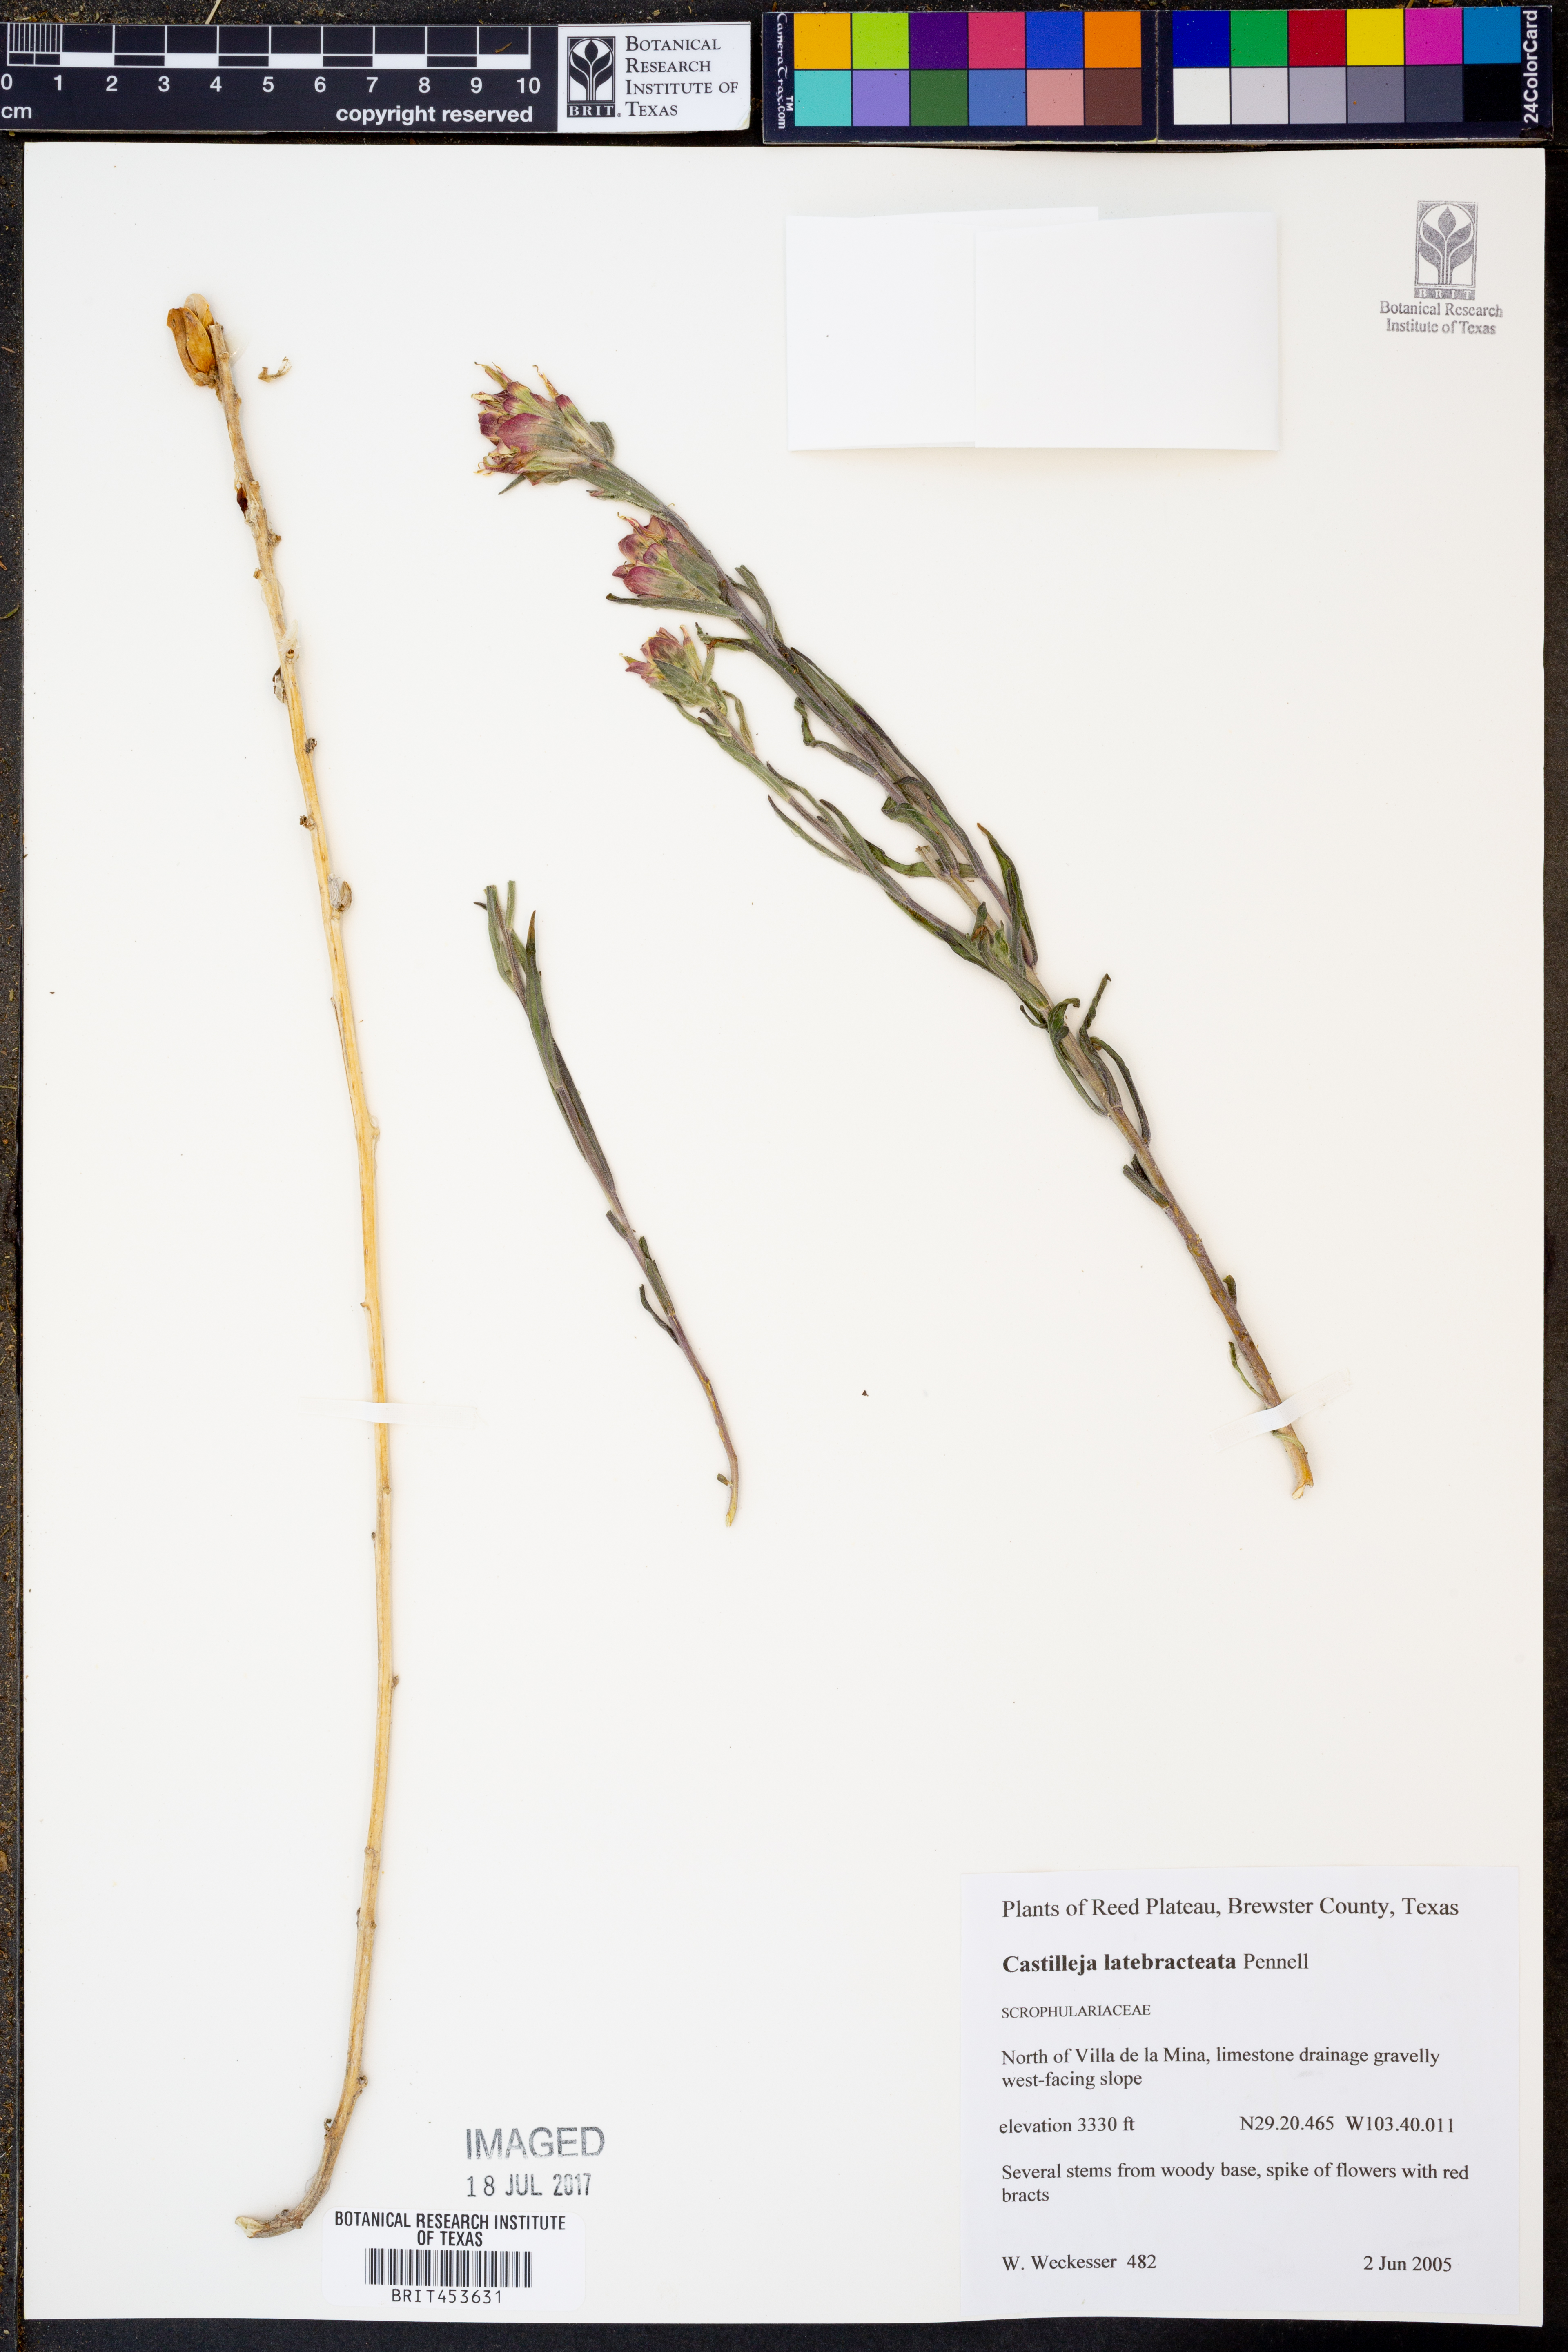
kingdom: Plantae
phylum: Tracheophyta
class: Magnoliopsida
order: Lamiales
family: Orobanchaceae
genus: Castilleja
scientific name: Castilleja rigida
